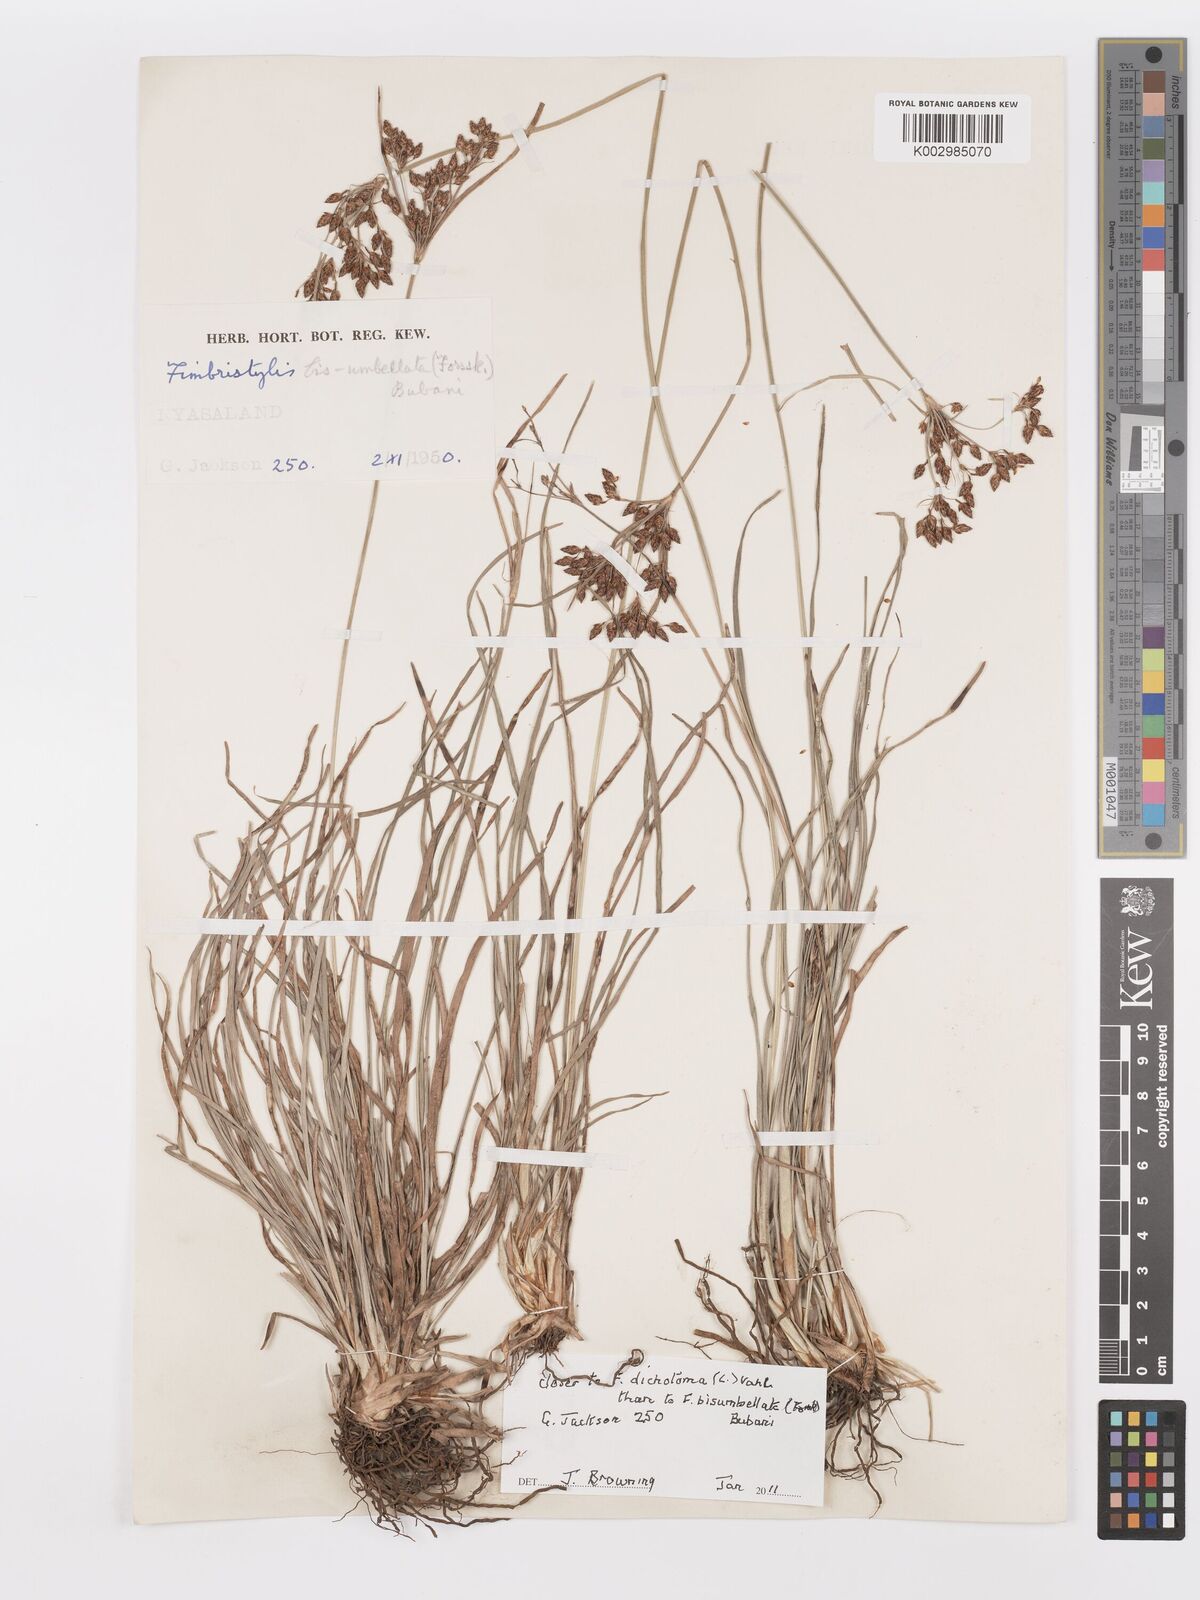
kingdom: Plantae
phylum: Tracheophyta
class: Liliopsida
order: Poales
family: Cyperaceae
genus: Fimbristylis
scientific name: Fimbristylis dichotoma
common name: Forked fimbry
